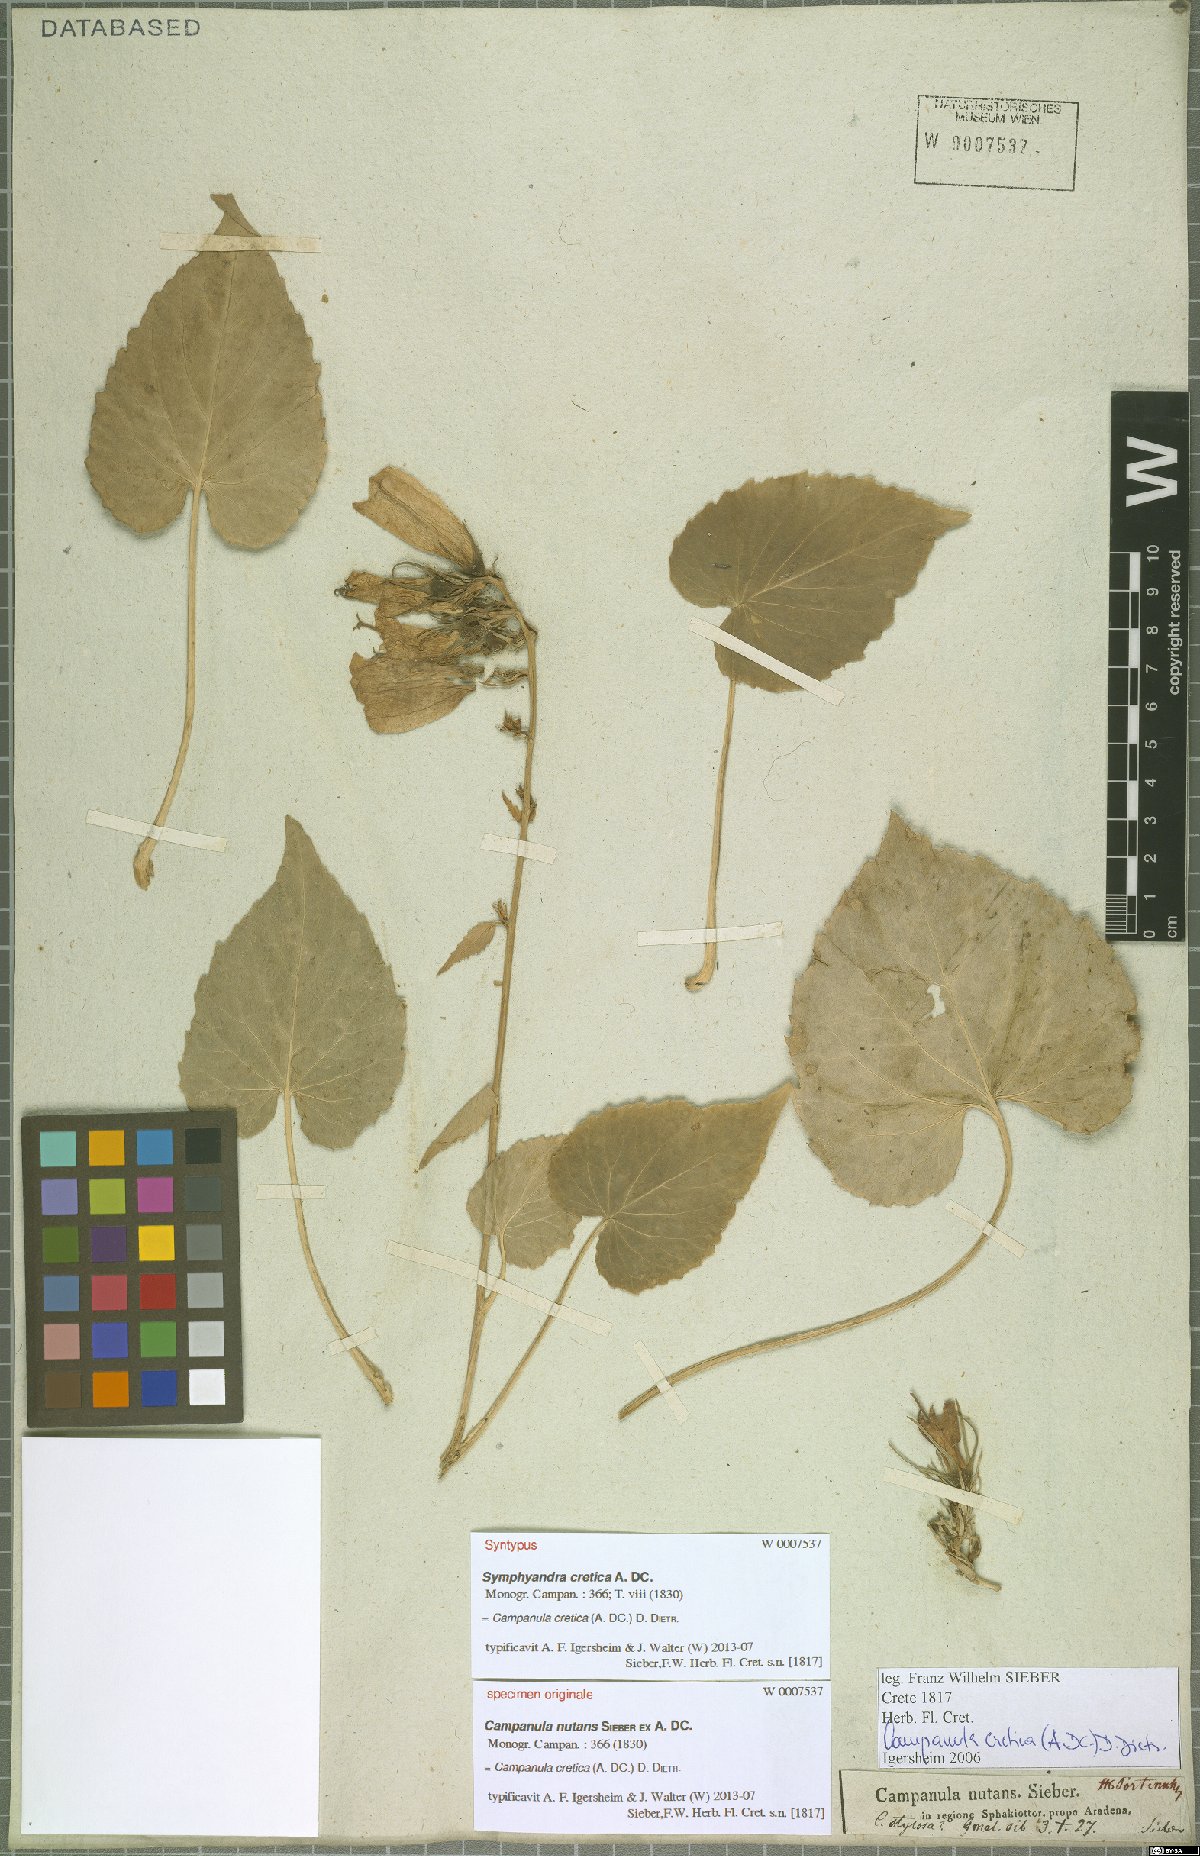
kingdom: Plantae
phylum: Tracheophyta
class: Magnoliopsida
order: Asterales
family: Campanulaceae
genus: Campanula
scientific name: Campanula cretica
